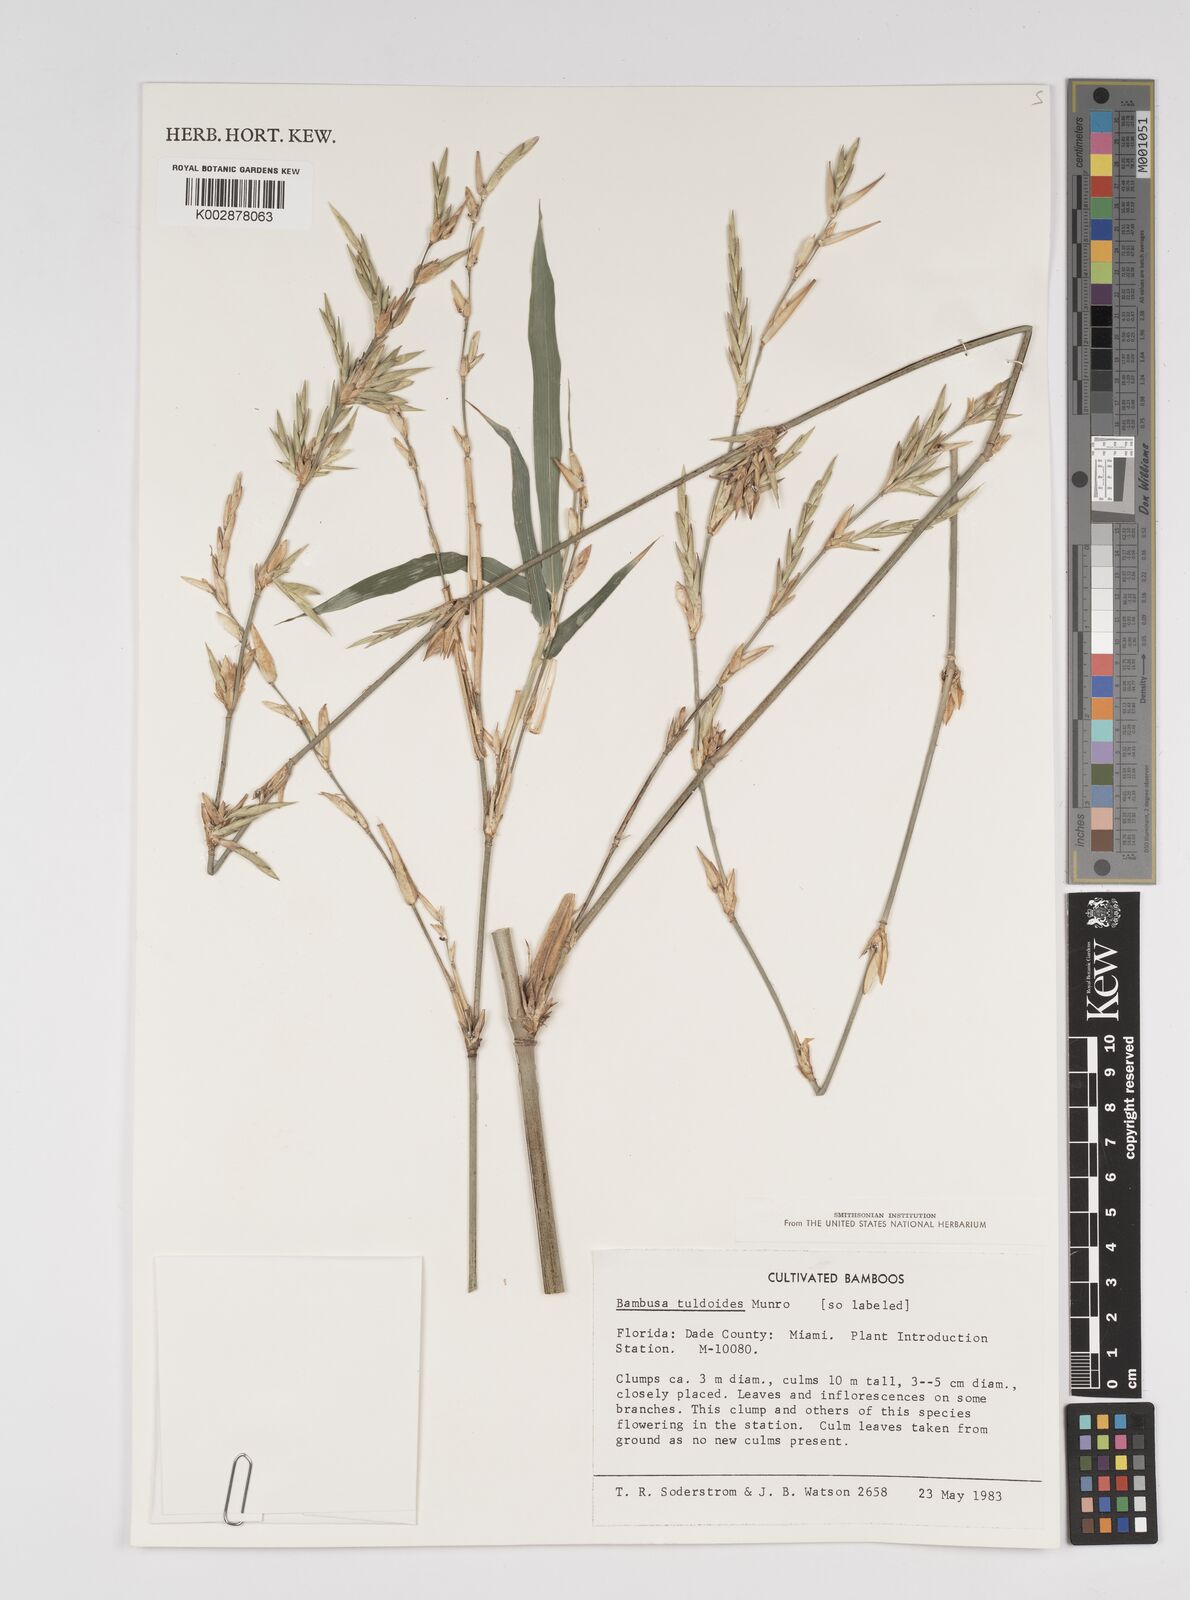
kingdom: Plantae
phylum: Tracheophyta
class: Liliopsida
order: Poales
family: Poaceae
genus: Bambusa
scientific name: Bambusa tuldoides
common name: Verdant bamboo
